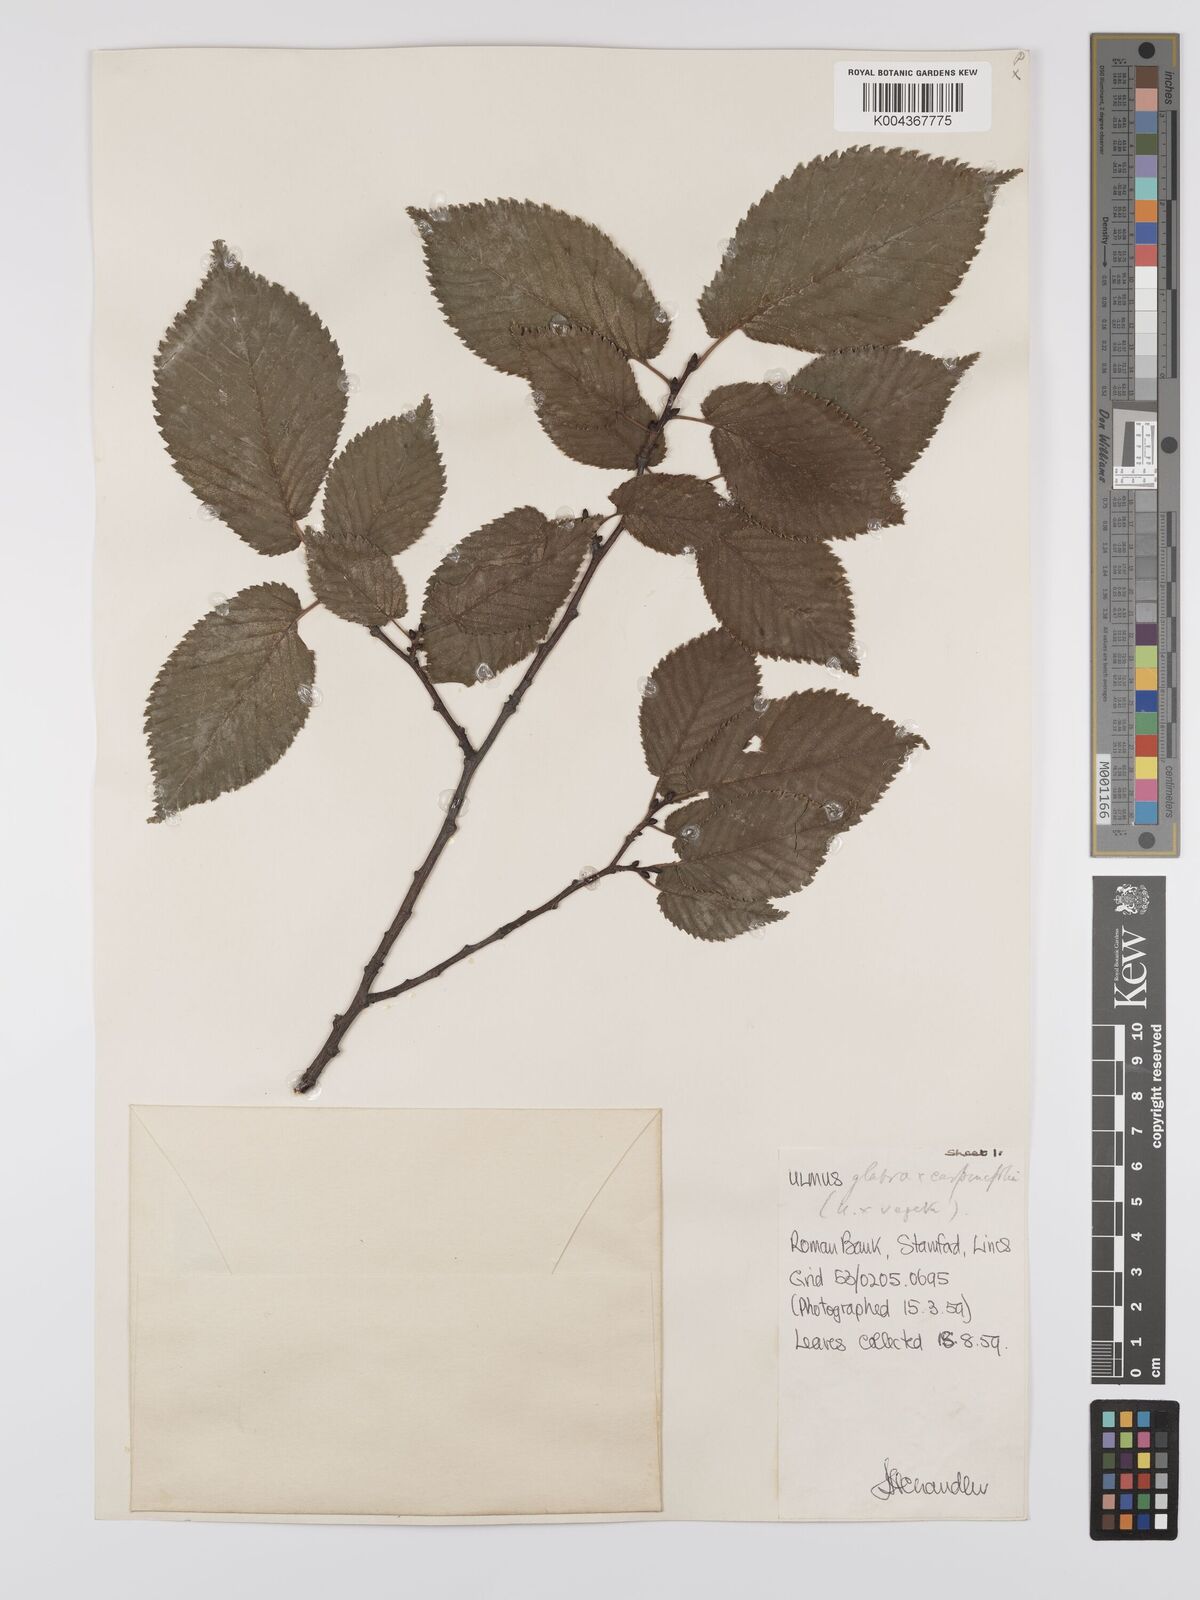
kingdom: Plantae
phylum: Tracheophyta
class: Magnoliopsida
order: Rosales
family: Ulmaceae
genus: Ulmus
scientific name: Ulmus
